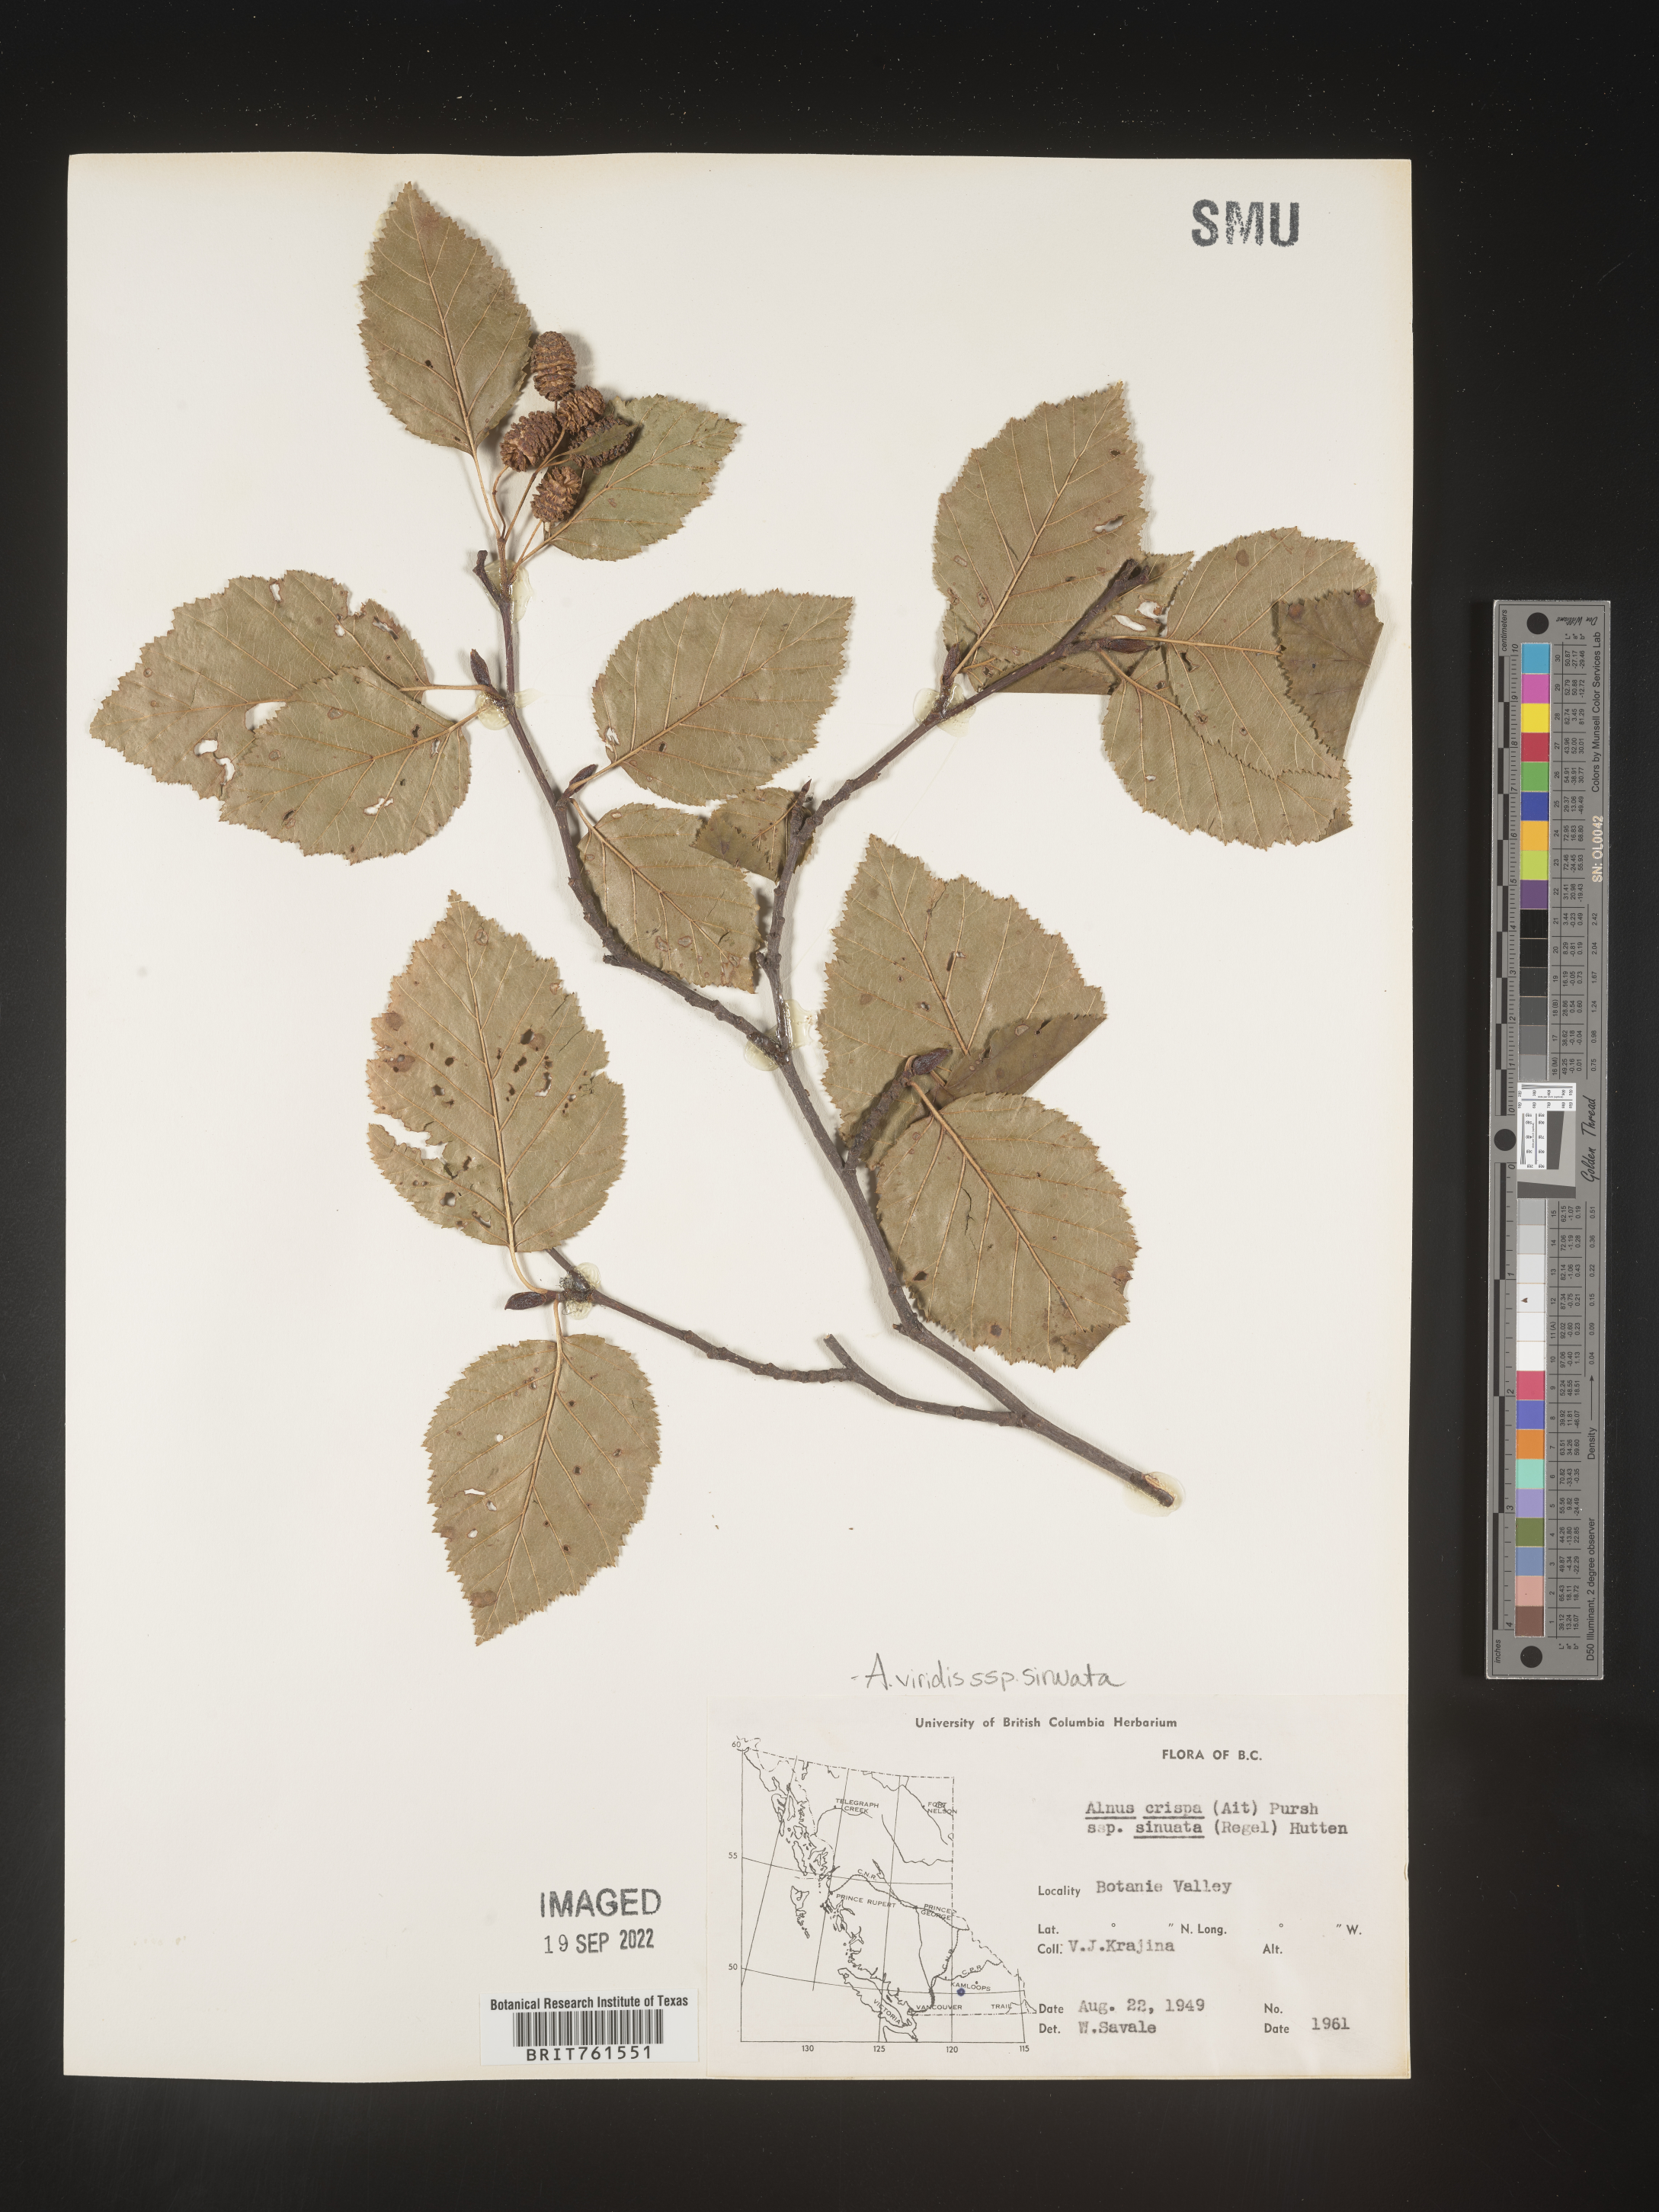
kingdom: Plantae
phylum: Tracheophyta
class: Magnoliopsida
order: Fagales
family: Betulaceae
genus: Alnus
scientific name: Alnus alnobetula
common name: Green alder
